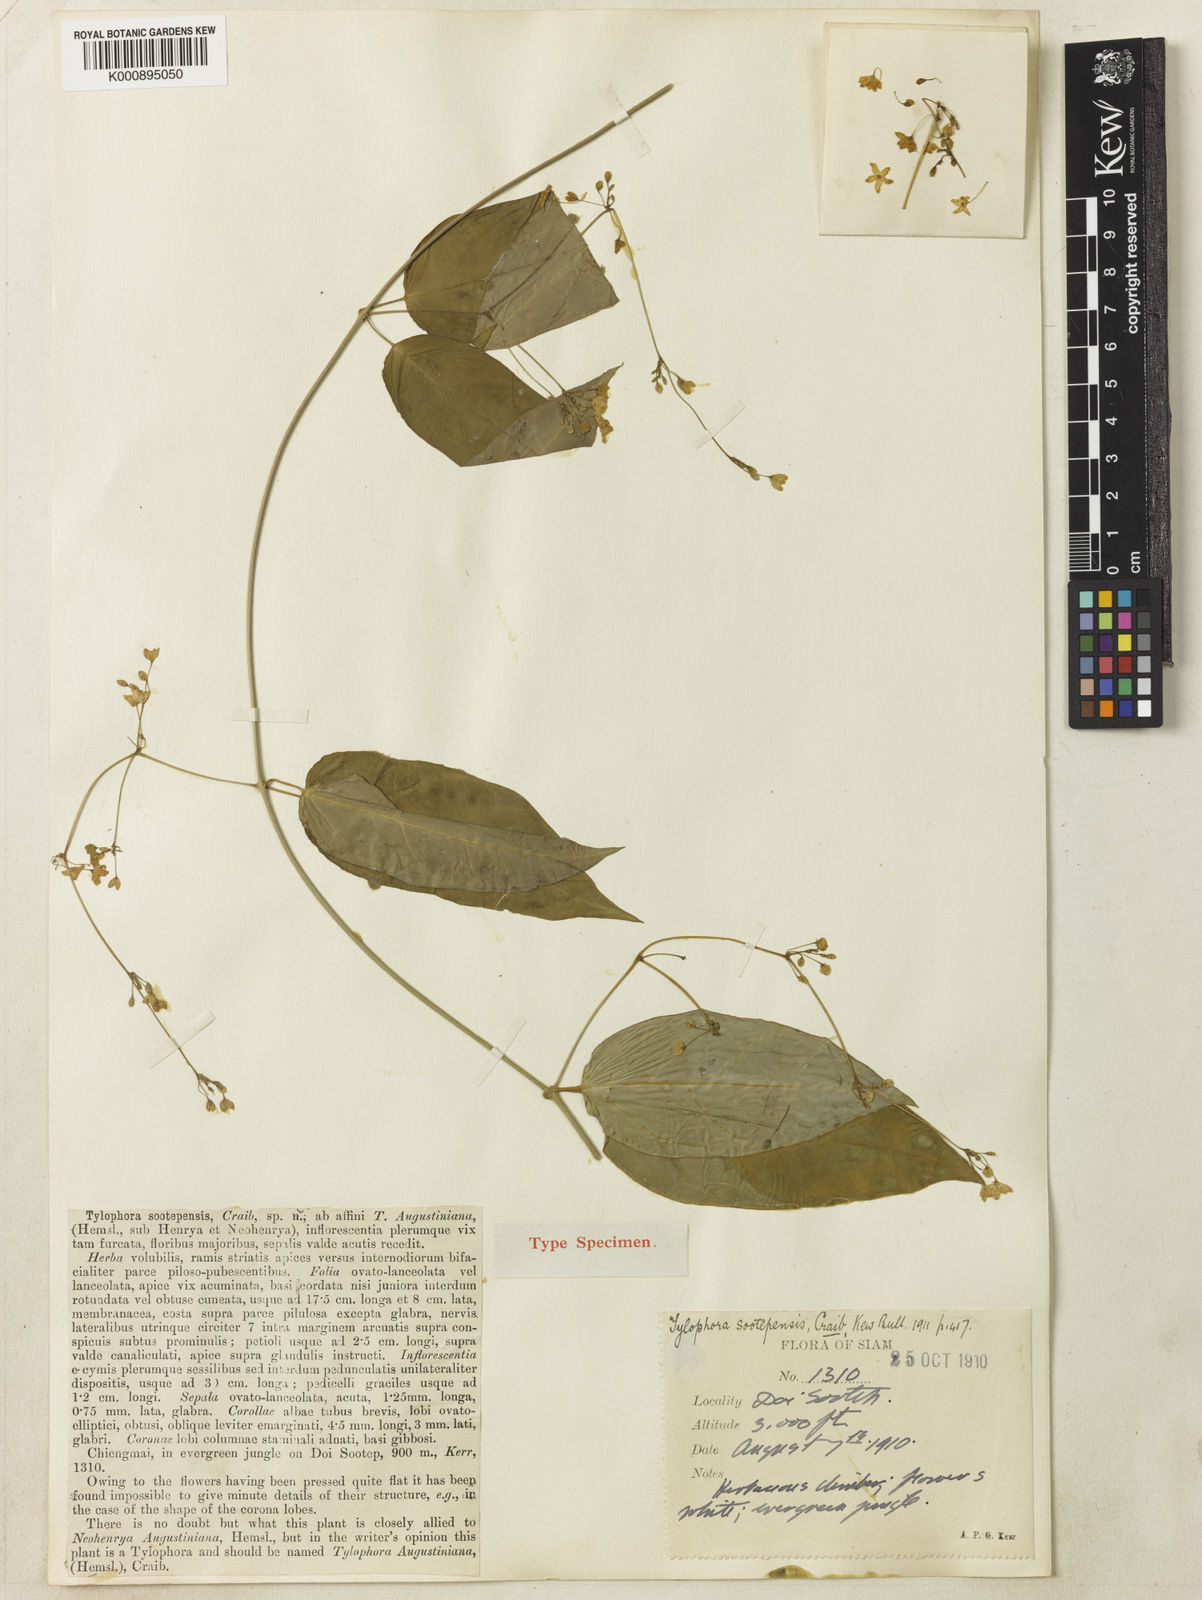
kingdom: Plantae
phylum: Tracheophyta
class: Magnoliopsida
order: Gentianales
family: Apocynaceae
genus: Vincetoxicum
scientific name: Vincetoxicum sootepense
